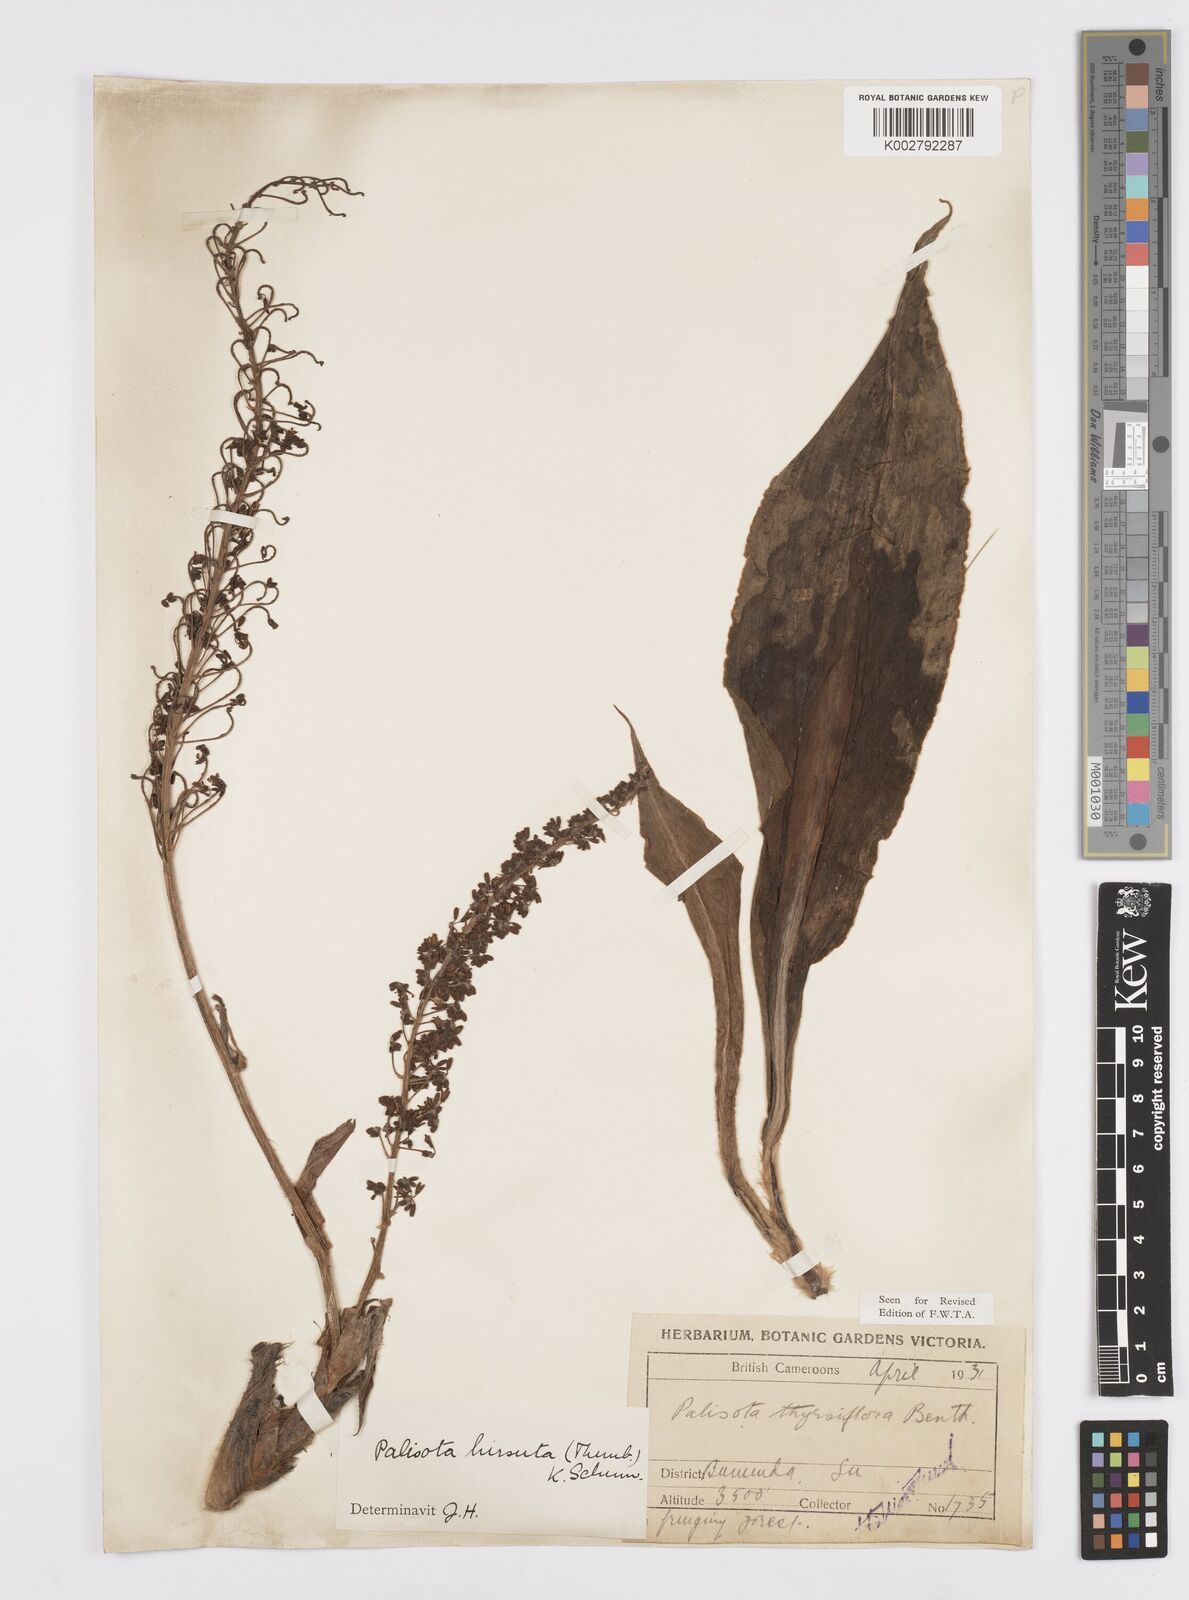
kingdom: Plantae
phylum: Tracheophyta
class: Liliopsida
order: Commelinales
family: Commelinaceae
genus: Palisota
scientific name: Palisota hirsuta
